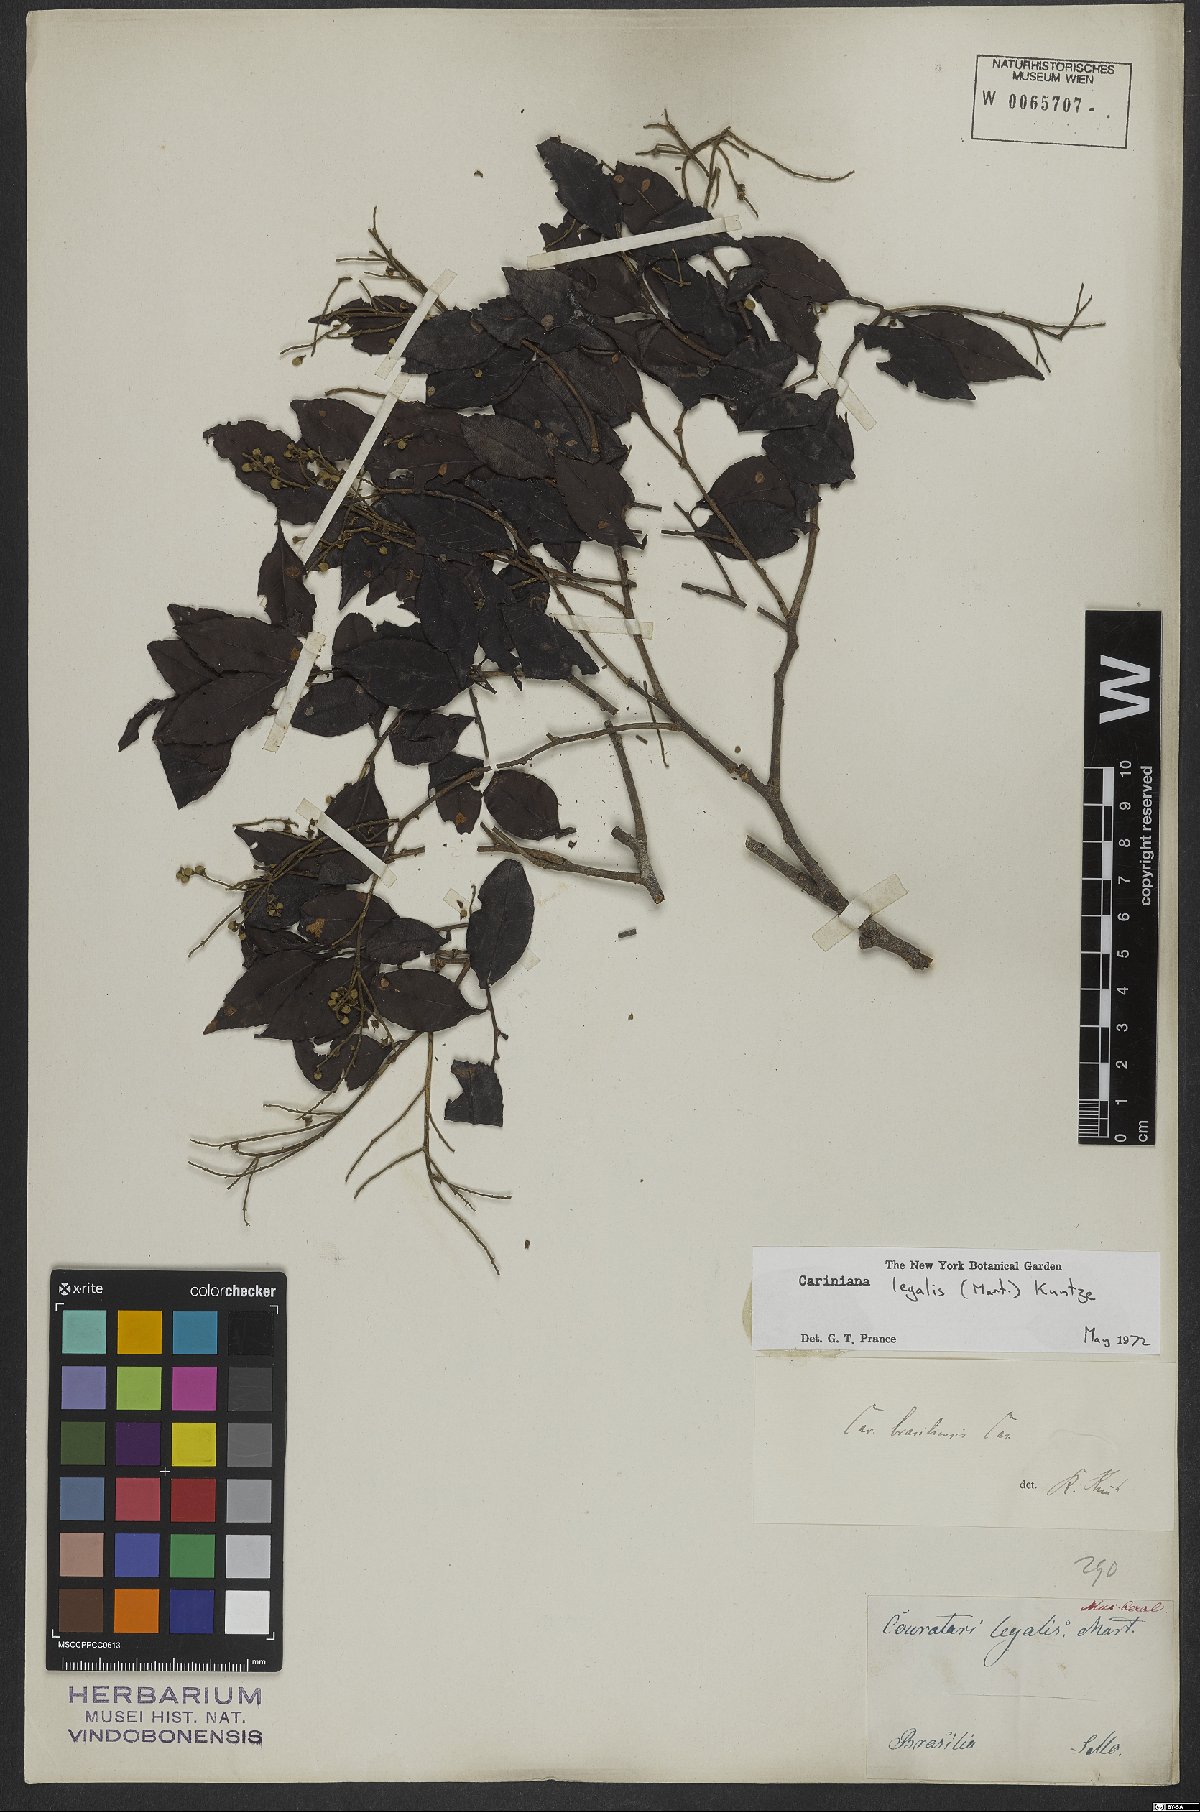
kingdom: Plantae
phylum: Tracheophyta
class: Magnoliopsida
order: Ericales
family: Lecythidaceae
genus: Cariniana
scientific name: Cariniana legalis
